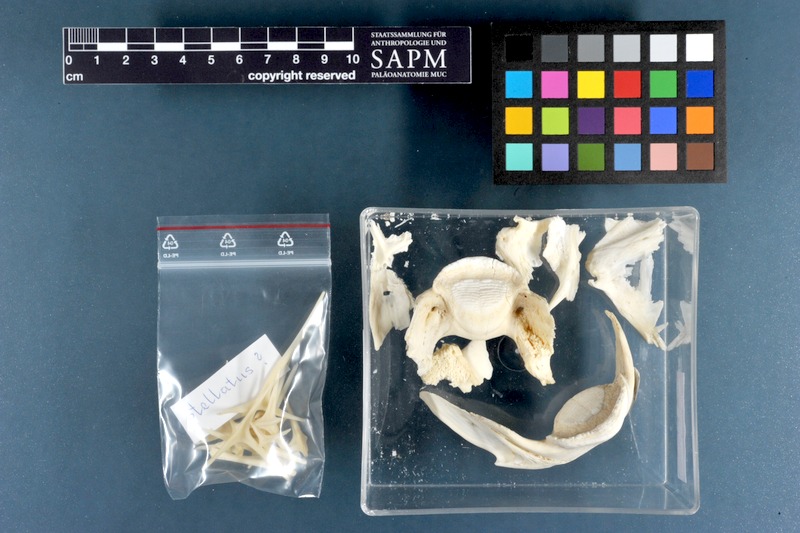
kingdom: Animalia
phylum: Chordata
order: Tetraodontiformes
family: Tetraodontidae
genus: Arothron
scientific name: Arothron stellatus
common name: Star blaasop
